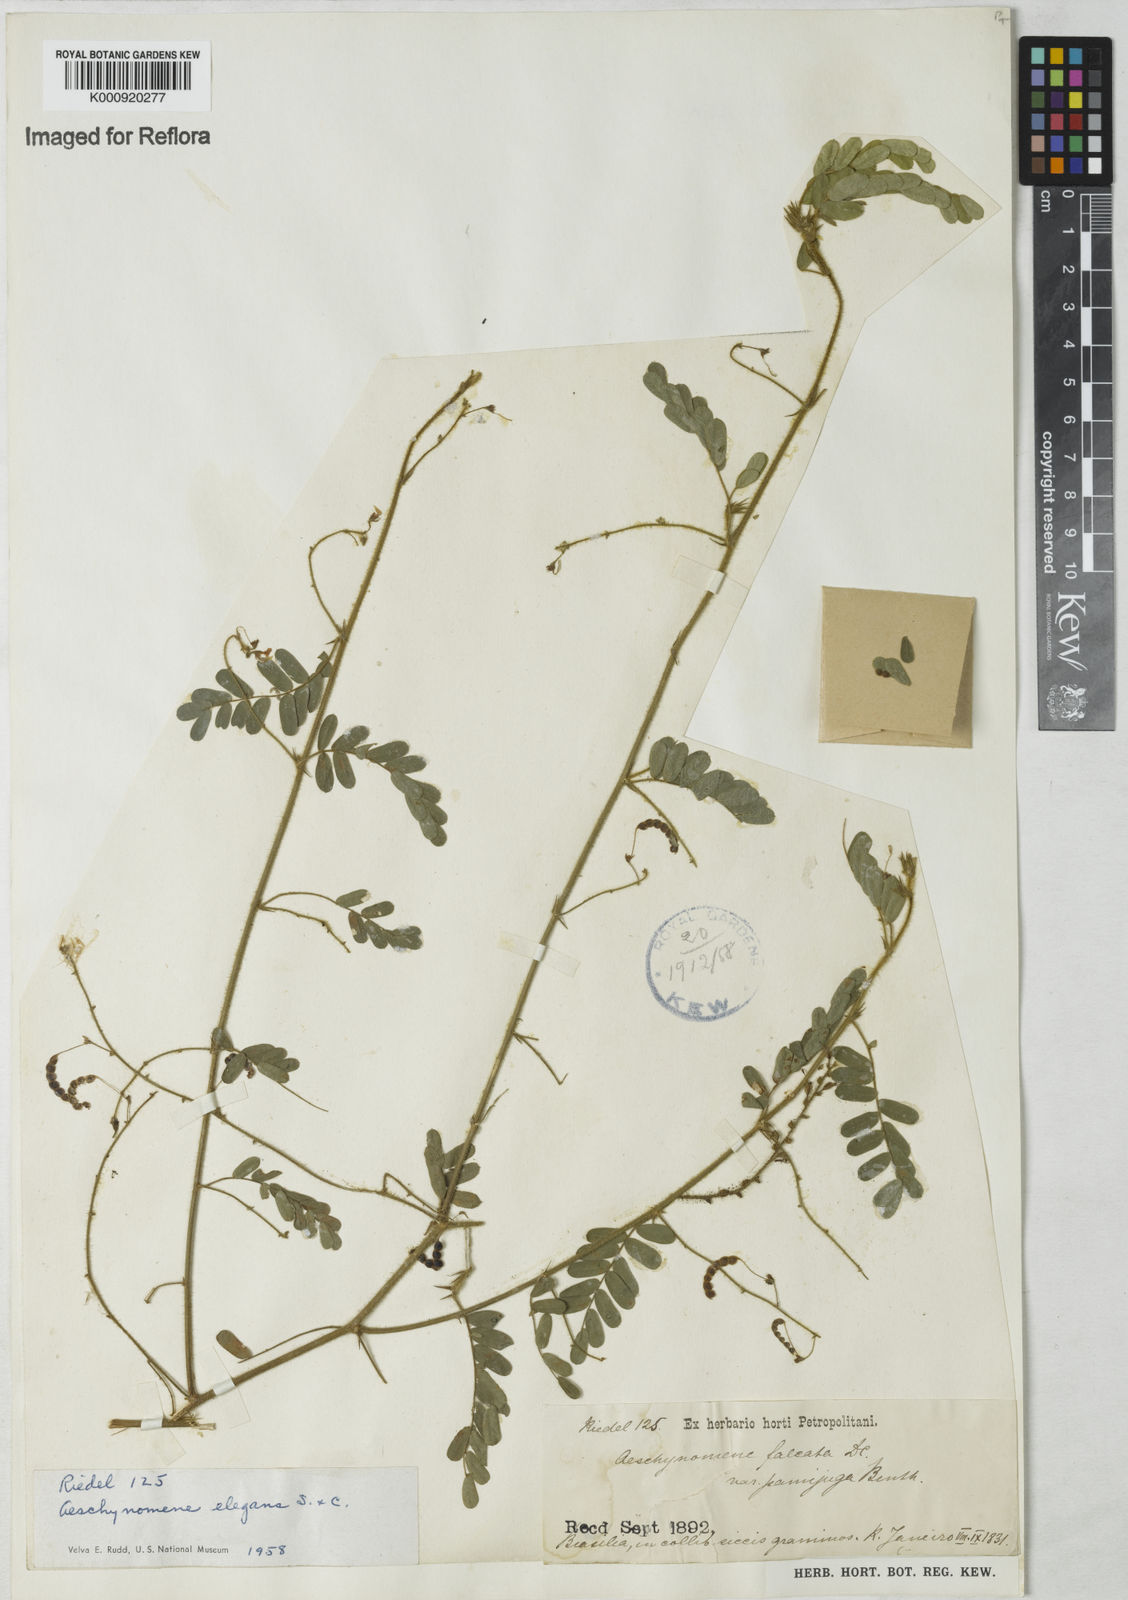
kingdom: Plantae
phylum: Tracheophyta
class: Magnoliopsida
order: Fabales
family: Fabaceae
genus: Ctenodon
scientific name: Ctenodon elegans
